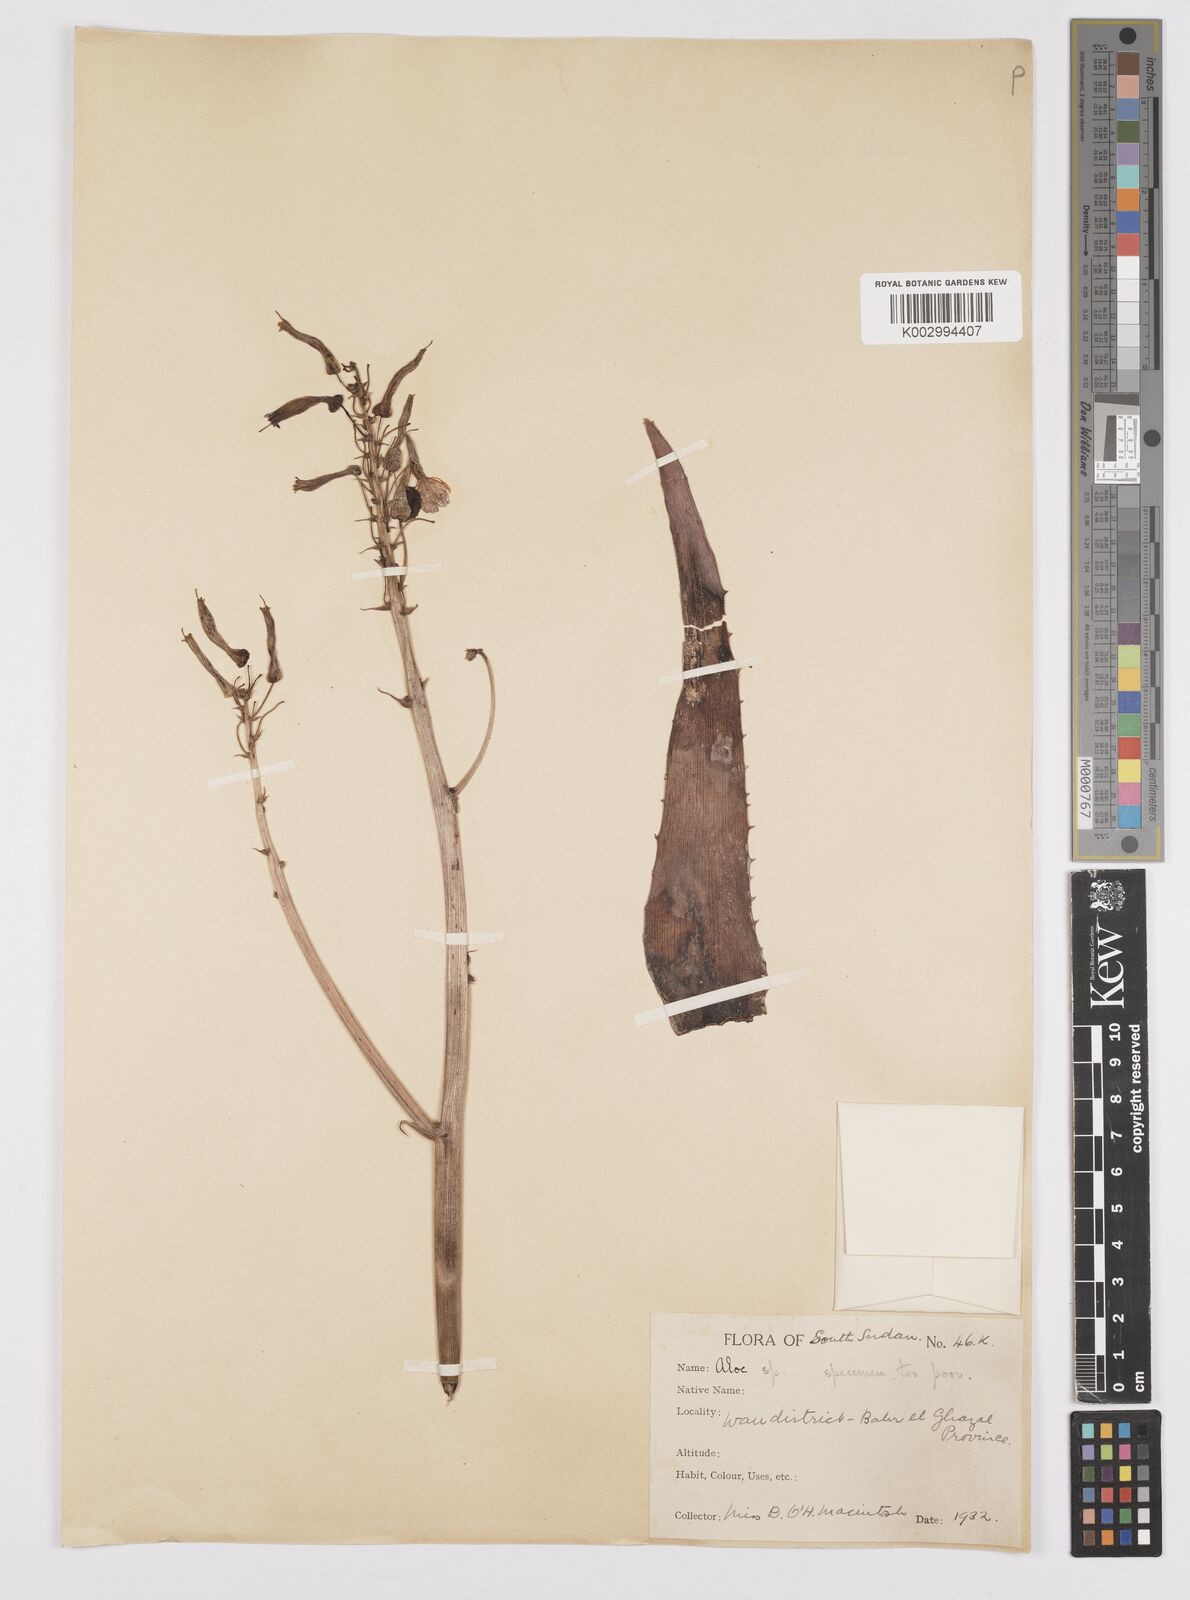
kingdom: Plantae
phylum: Tracheophyta
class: Liliopsida
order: Asparagales
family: Asphodelaceae
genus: Aloe
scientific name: Aloe
